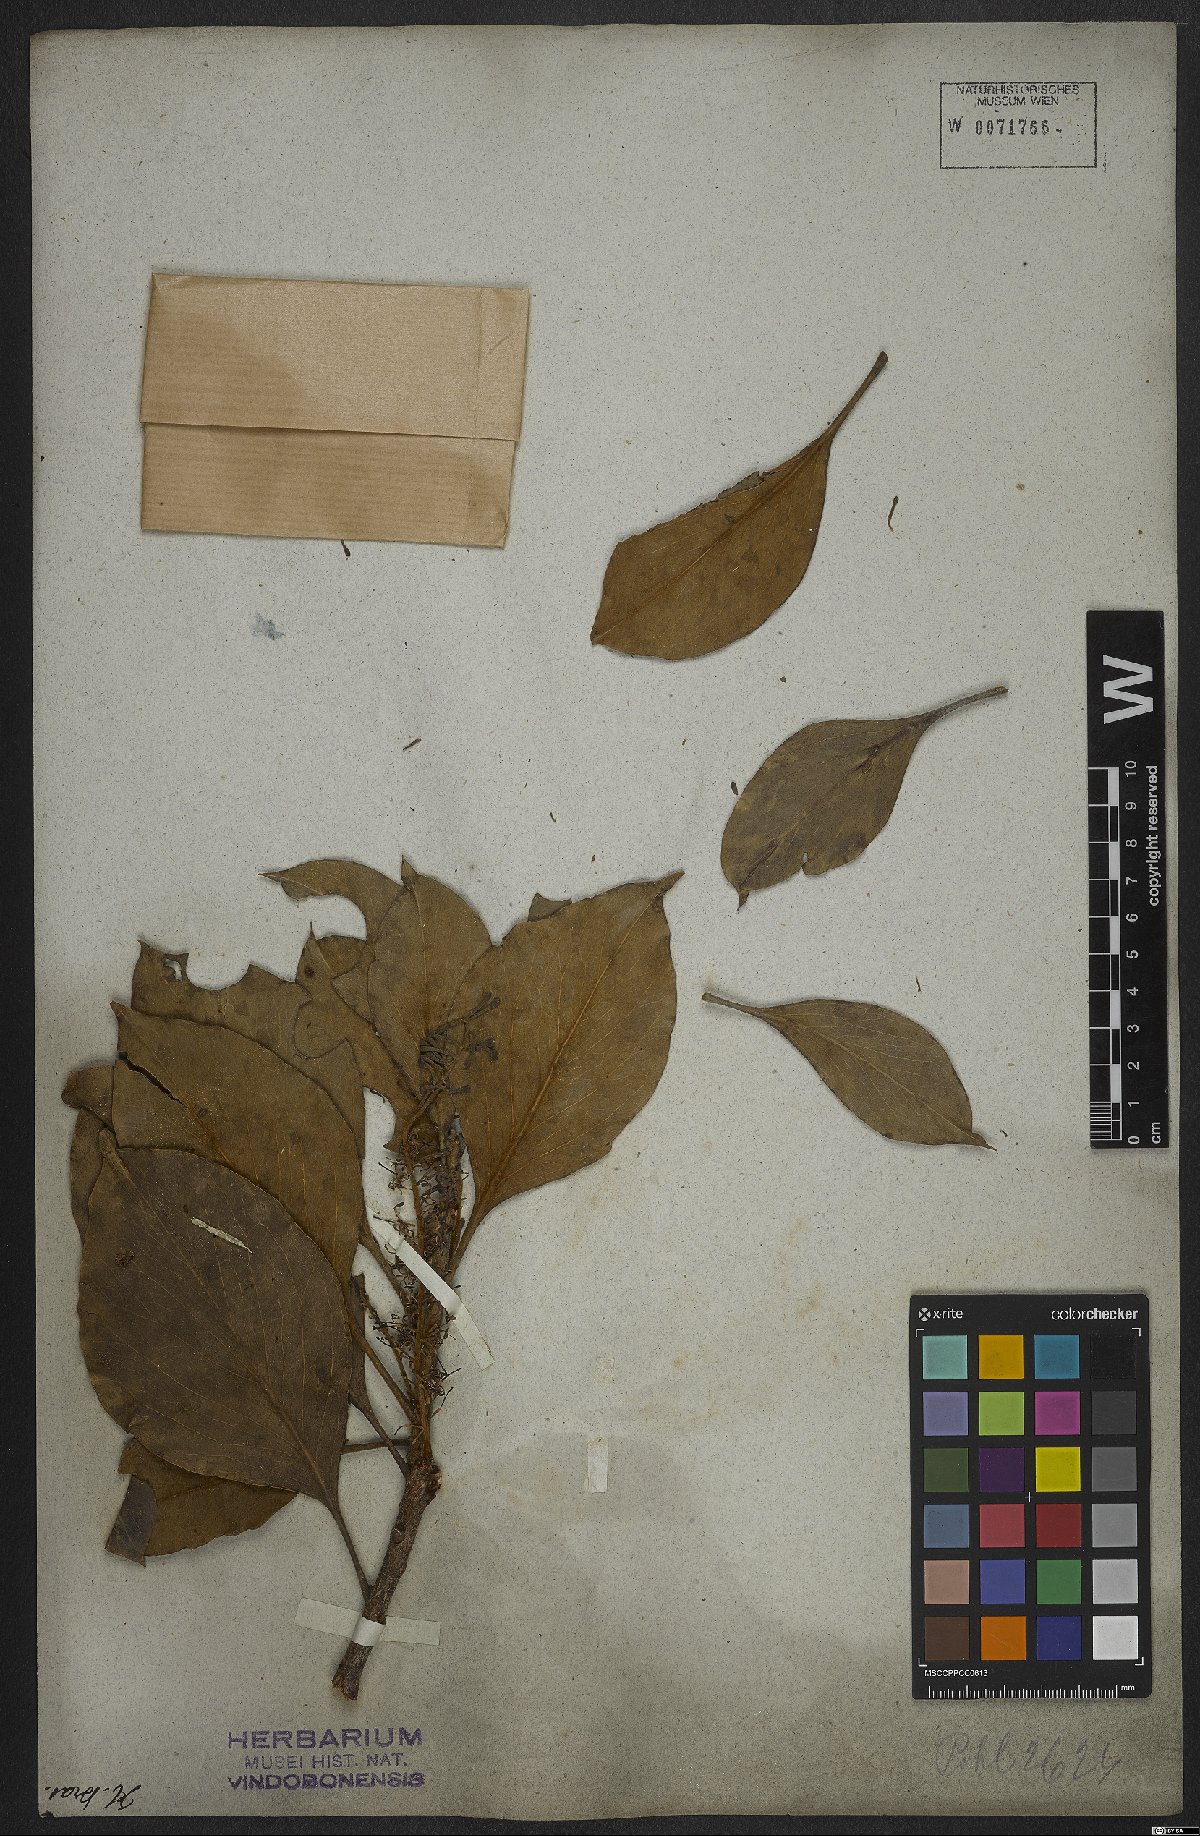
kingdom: Plantae
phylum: Tracheophyta
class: Magnoliopsida
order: Proteales
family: Proteaceae
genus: Roupala
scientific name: Roupala montana
